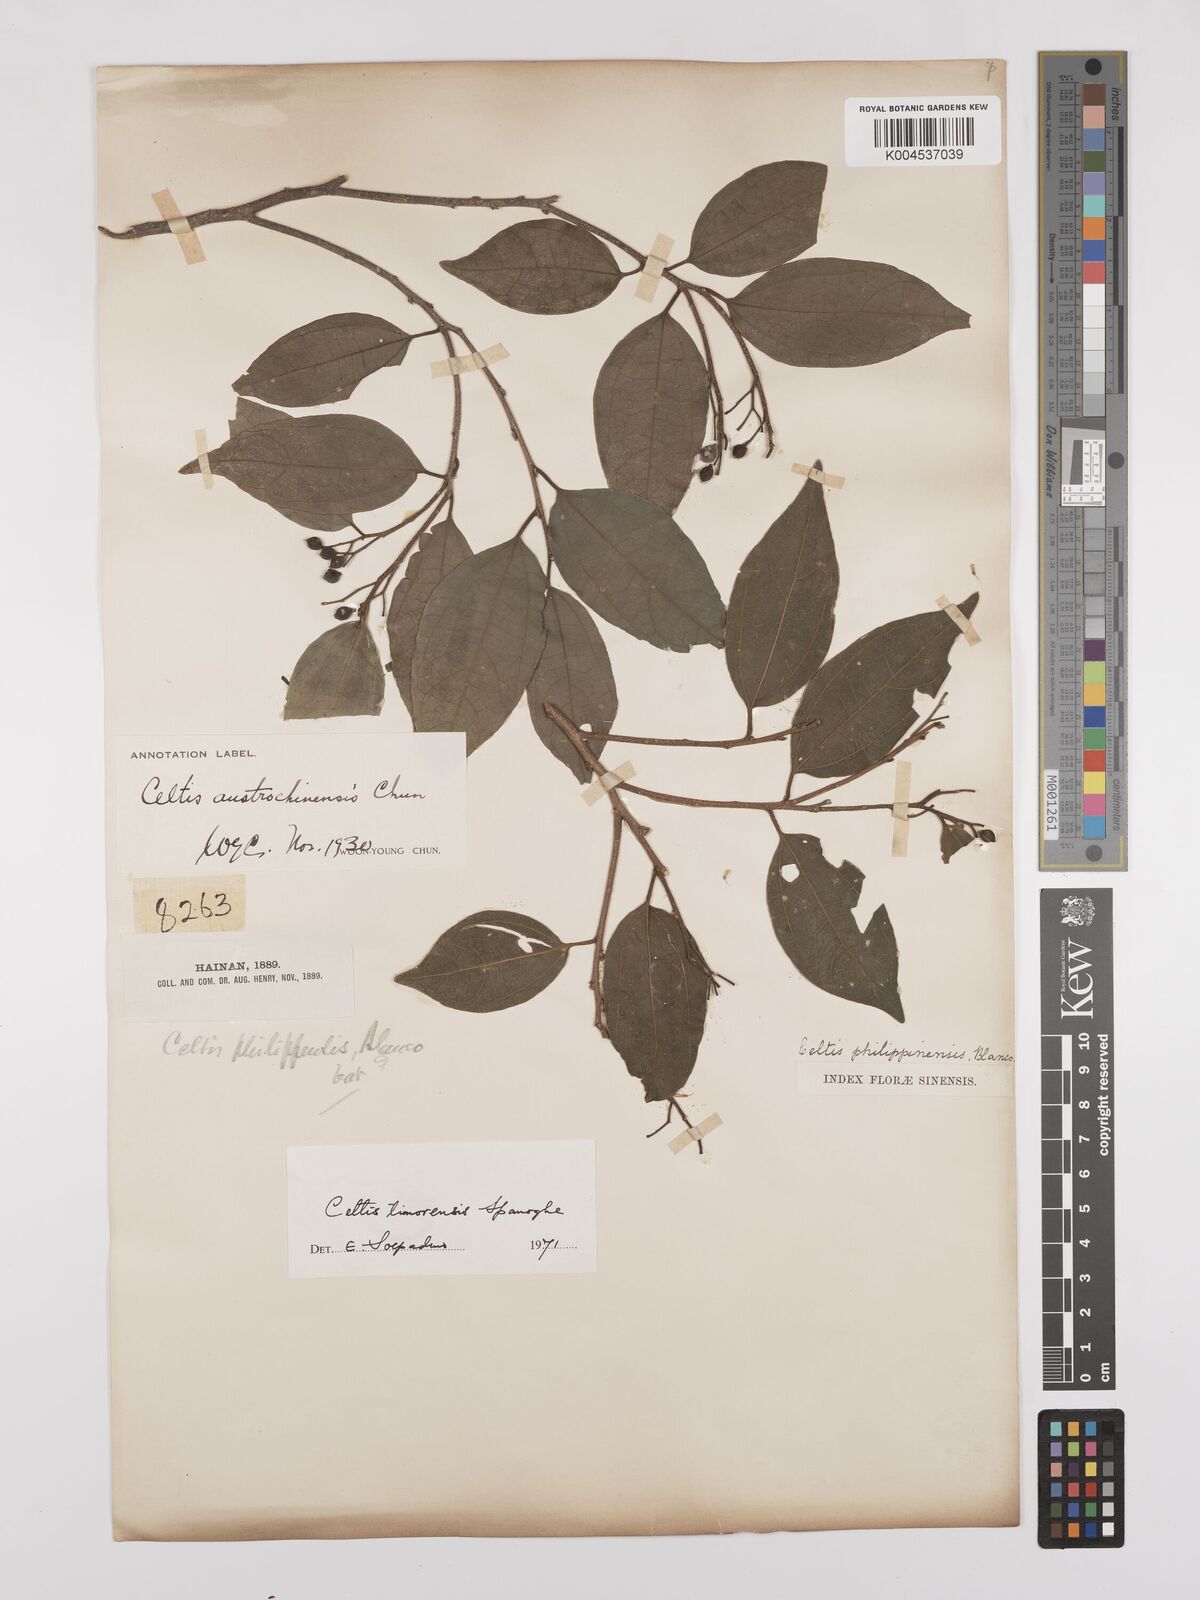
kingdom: Plantae
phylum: Tracheophyta
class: Magnoliopsida
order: Rosales
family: Cannabaceae
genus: Celtis
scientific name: Celtis timorensis
